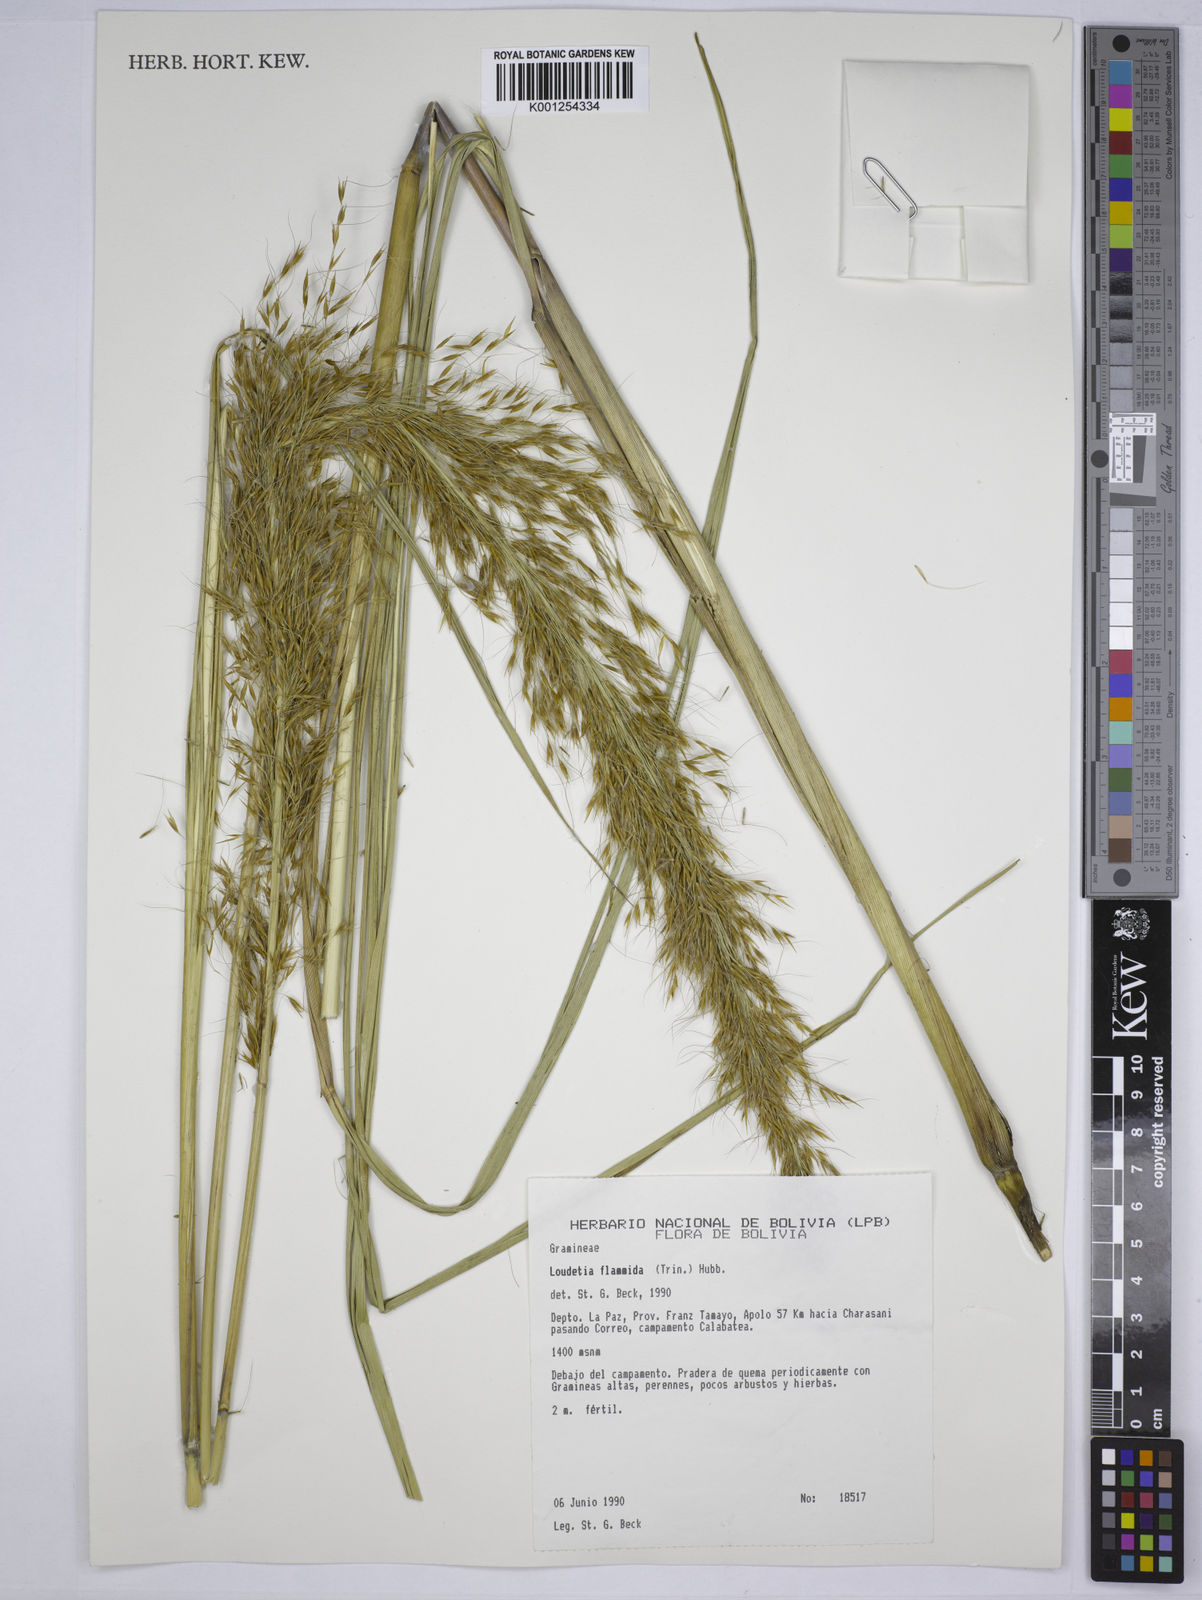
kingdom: Plantae
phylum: Tracheophyta
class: Liliopsida
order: Poales
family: Poaceae
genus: Loudetia
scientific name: Loudetia flammida
